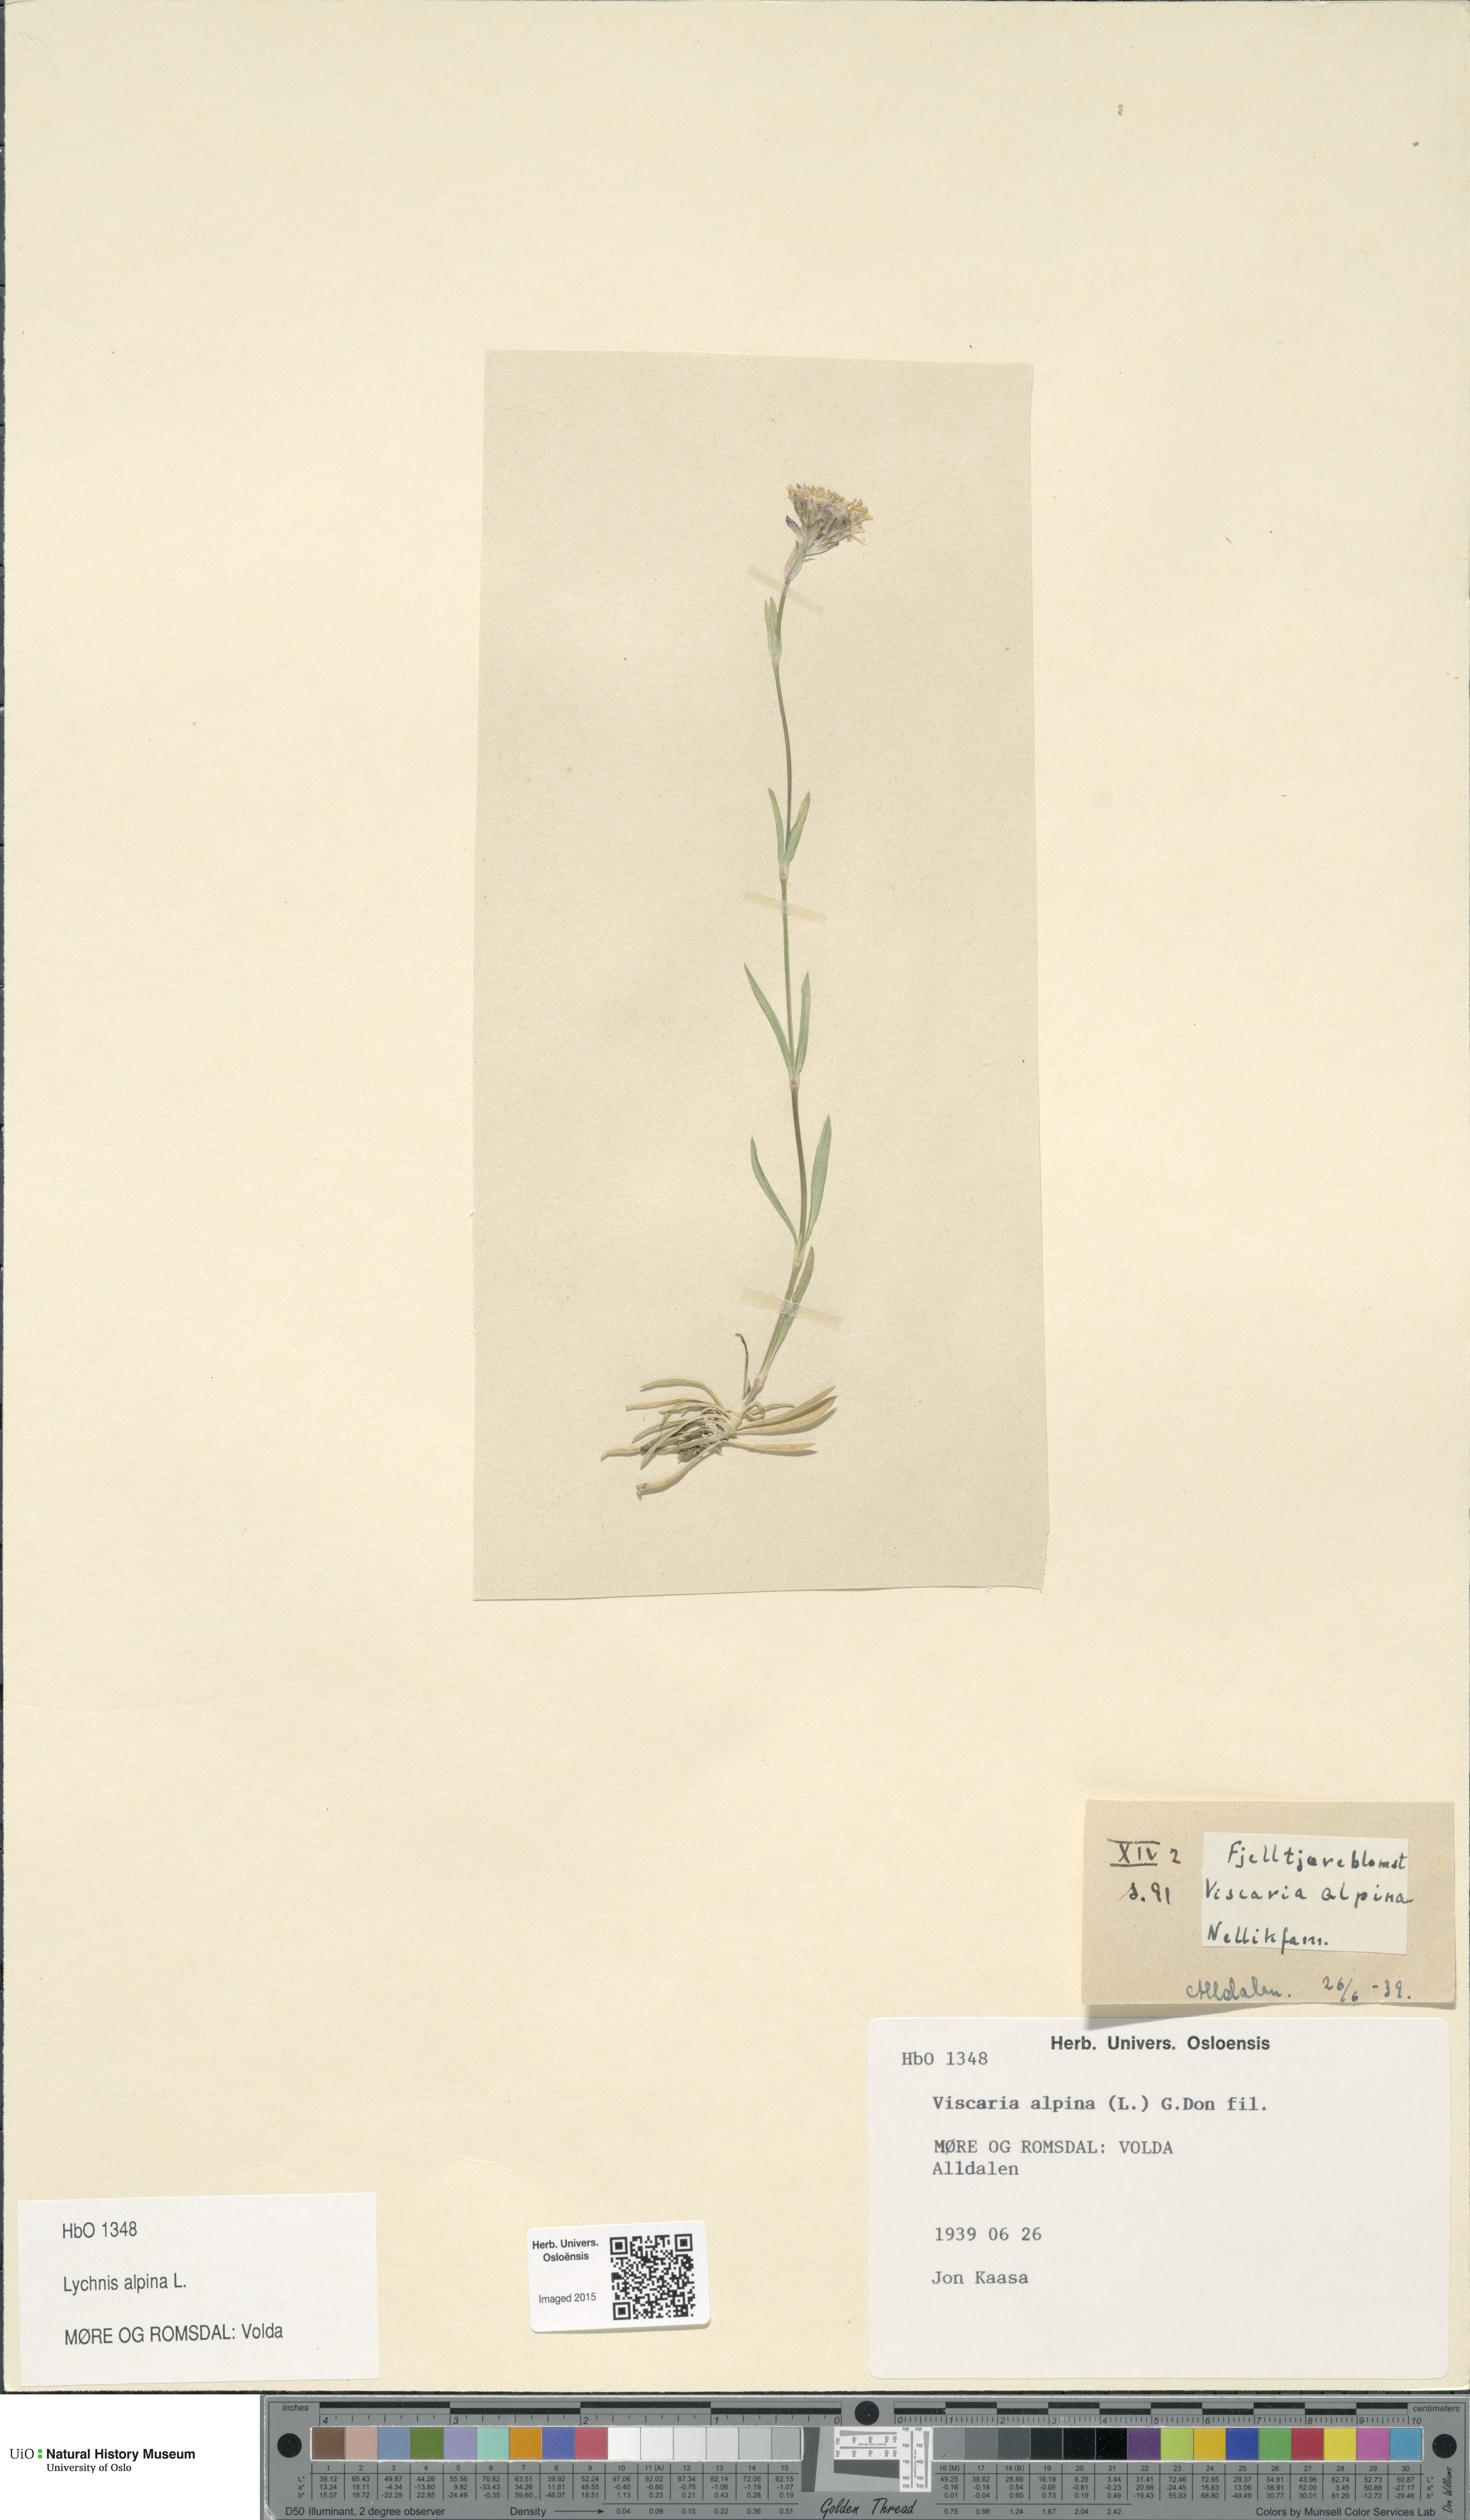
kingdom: Plantae
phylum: Tracheophyta
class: Magnoliopsida
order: Caryophyllales
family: Caryophyllaceae
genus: Viscaria
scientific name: Viscaria alpina
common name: Alpine campion
